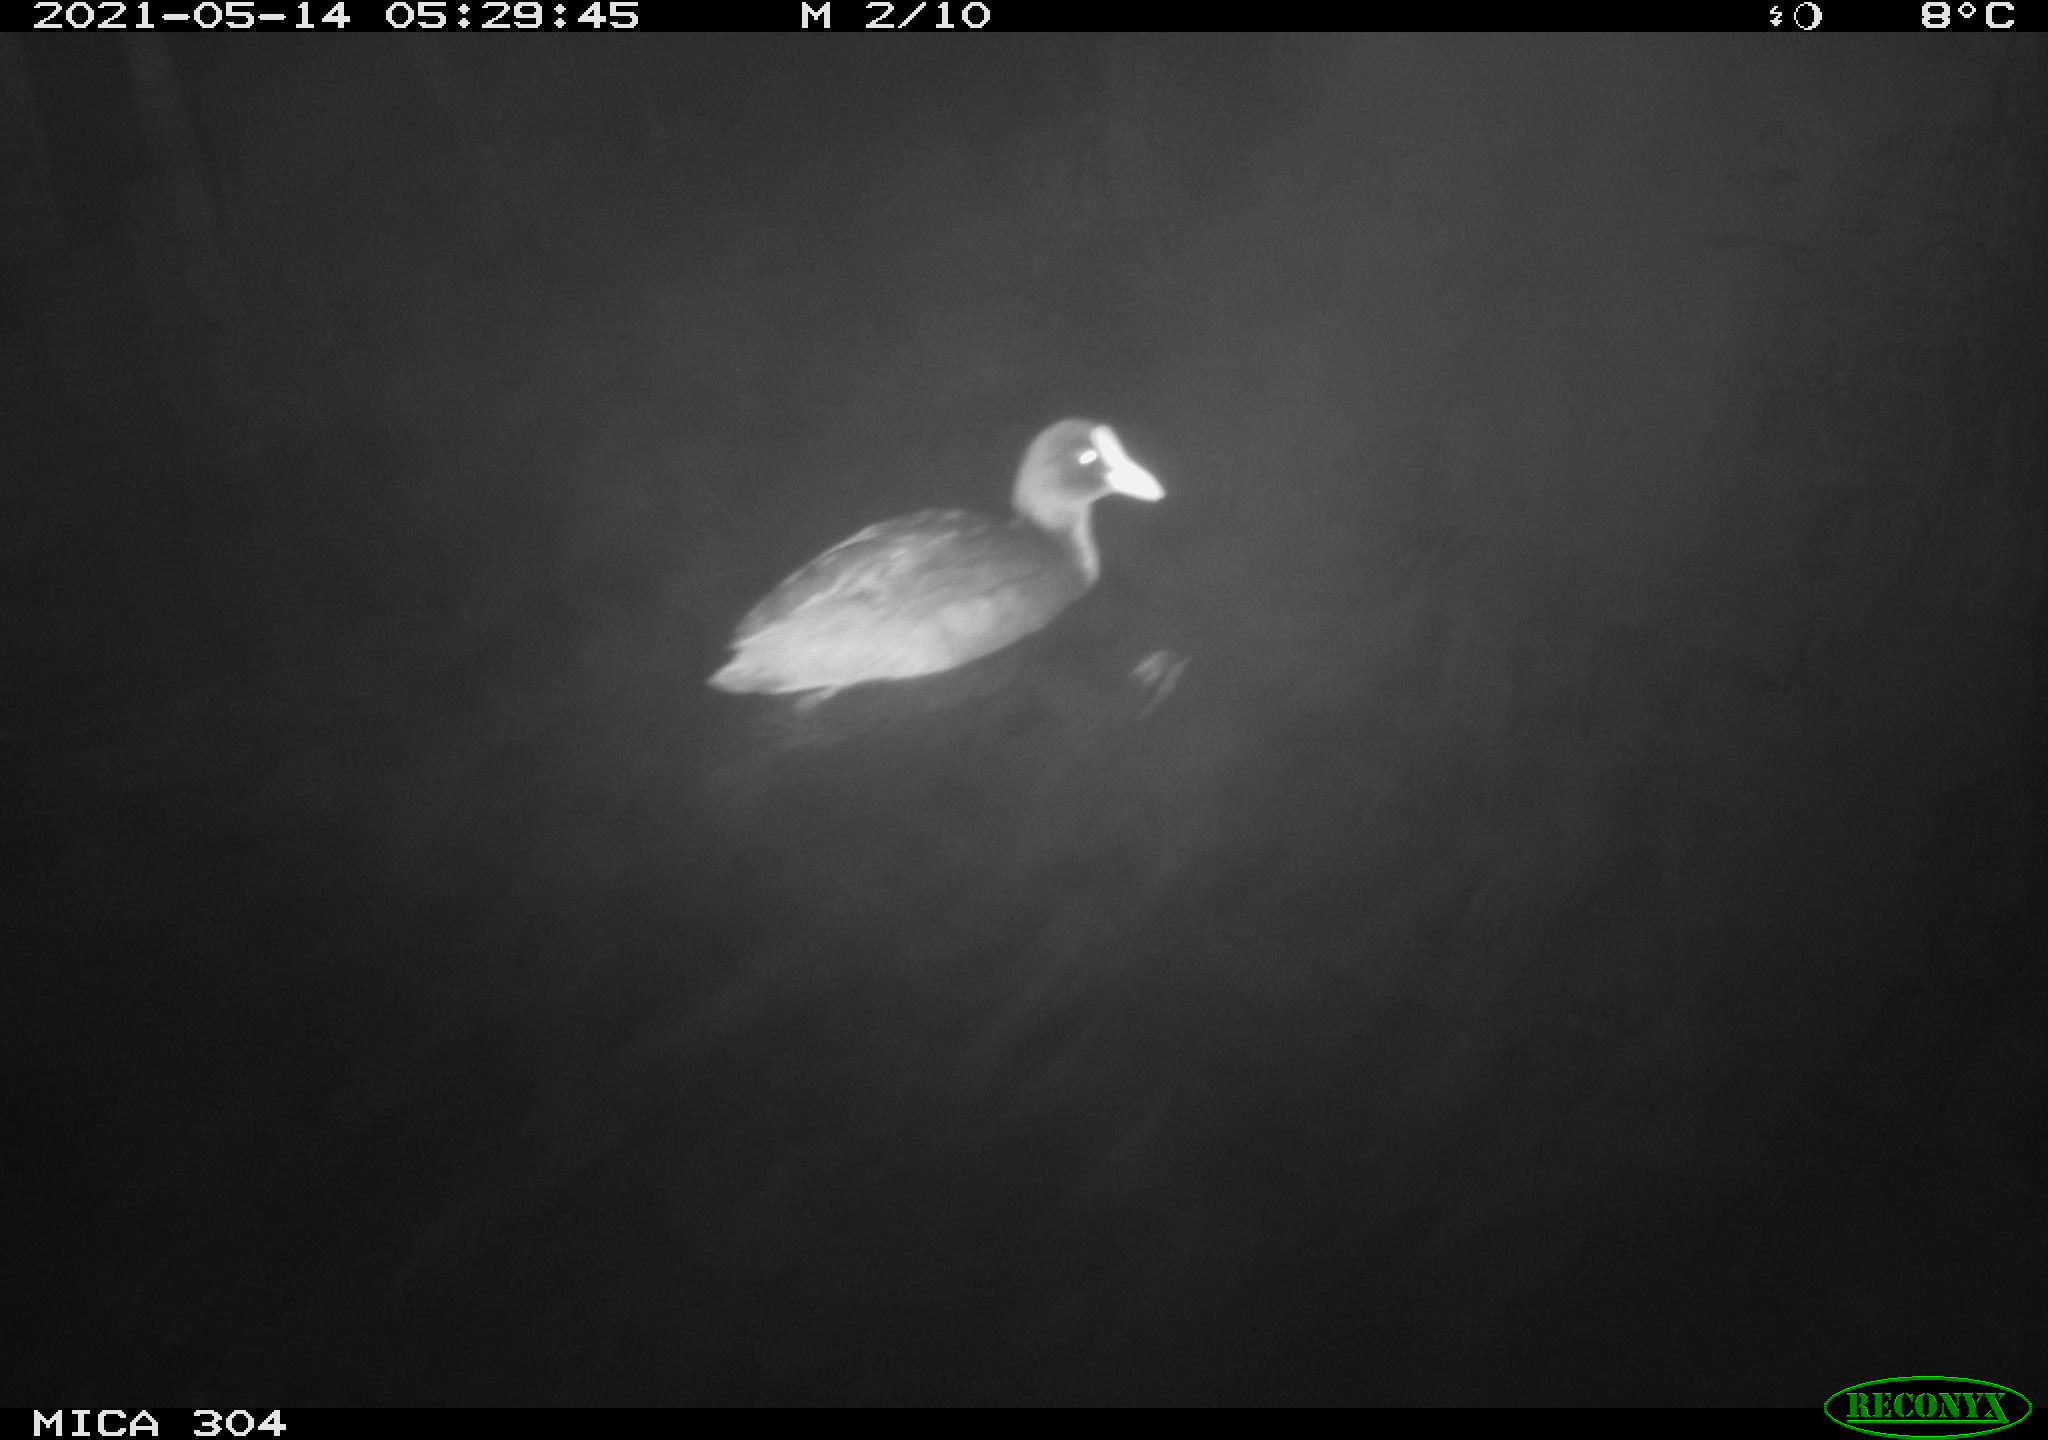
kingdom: Animalia
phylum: Chordata
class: Aves
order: Gruiformes
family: Rallidae
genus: Fulica
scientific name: Fulica atra
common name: Eurasian coot
